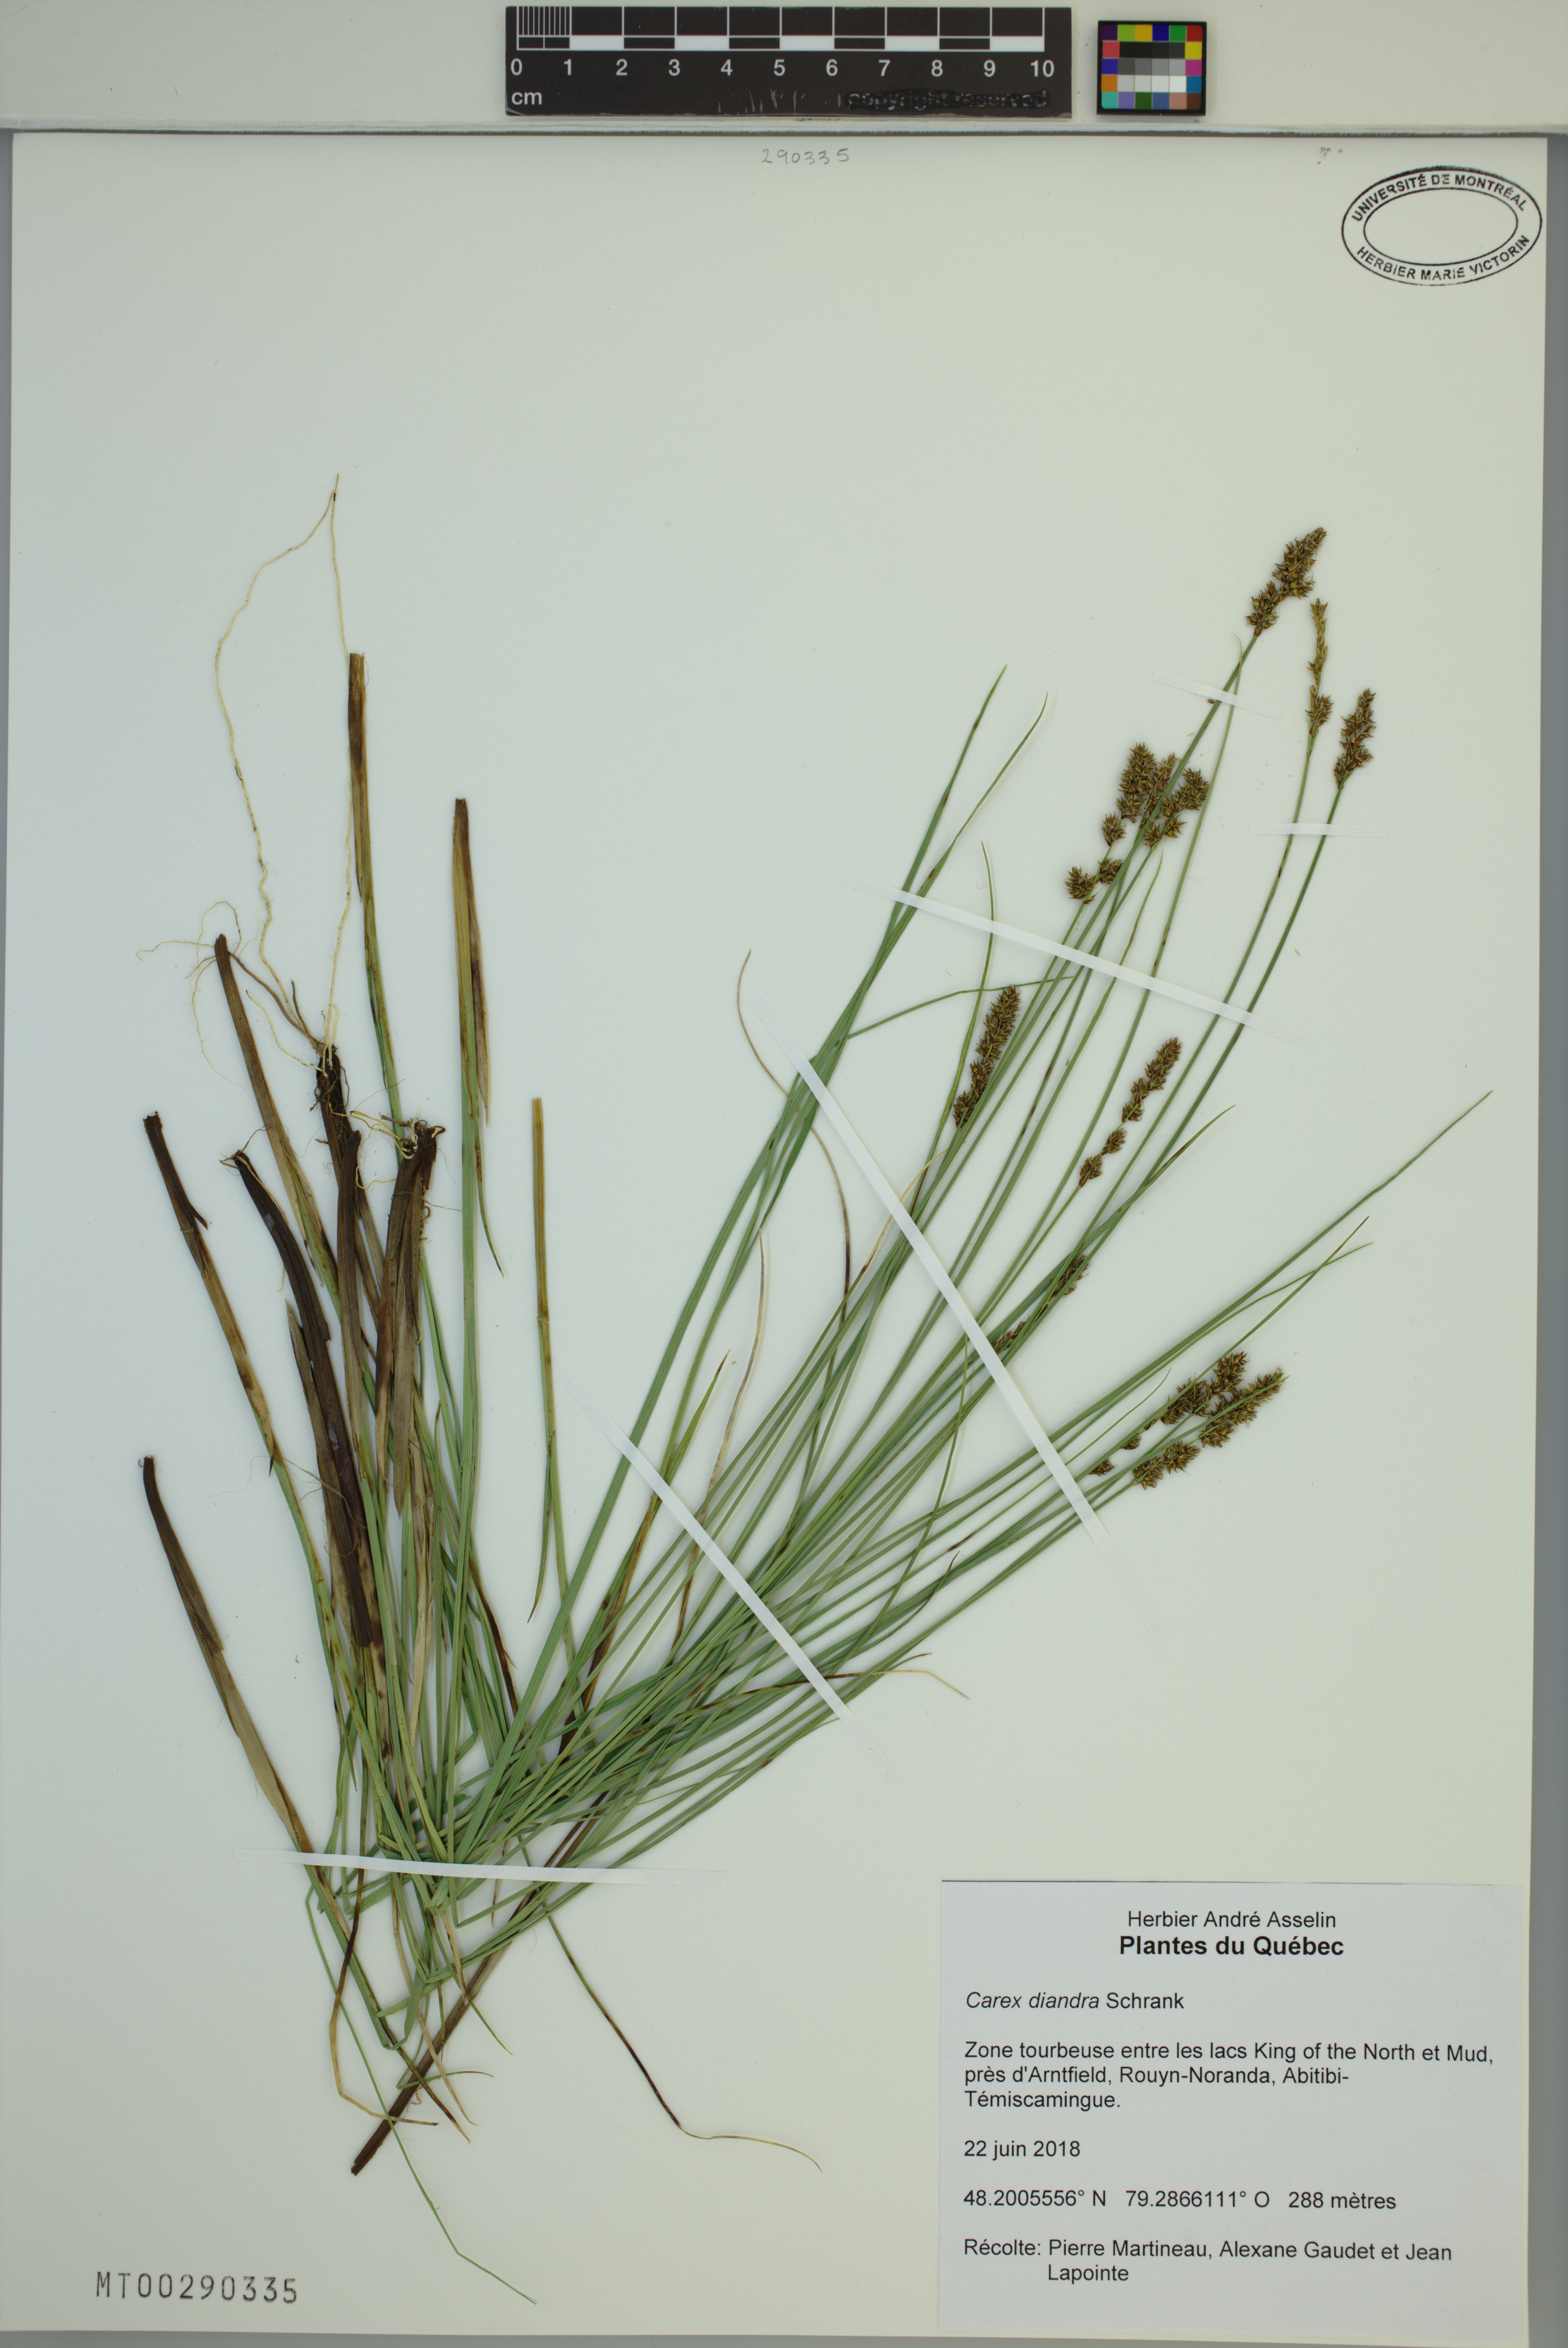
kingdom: Plantae
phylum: Tracheophyta
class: Liliopsida
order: Poales
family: Cyperaceae
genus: Carex
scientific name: Carex diandra
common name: Lesser tussock-sedge
